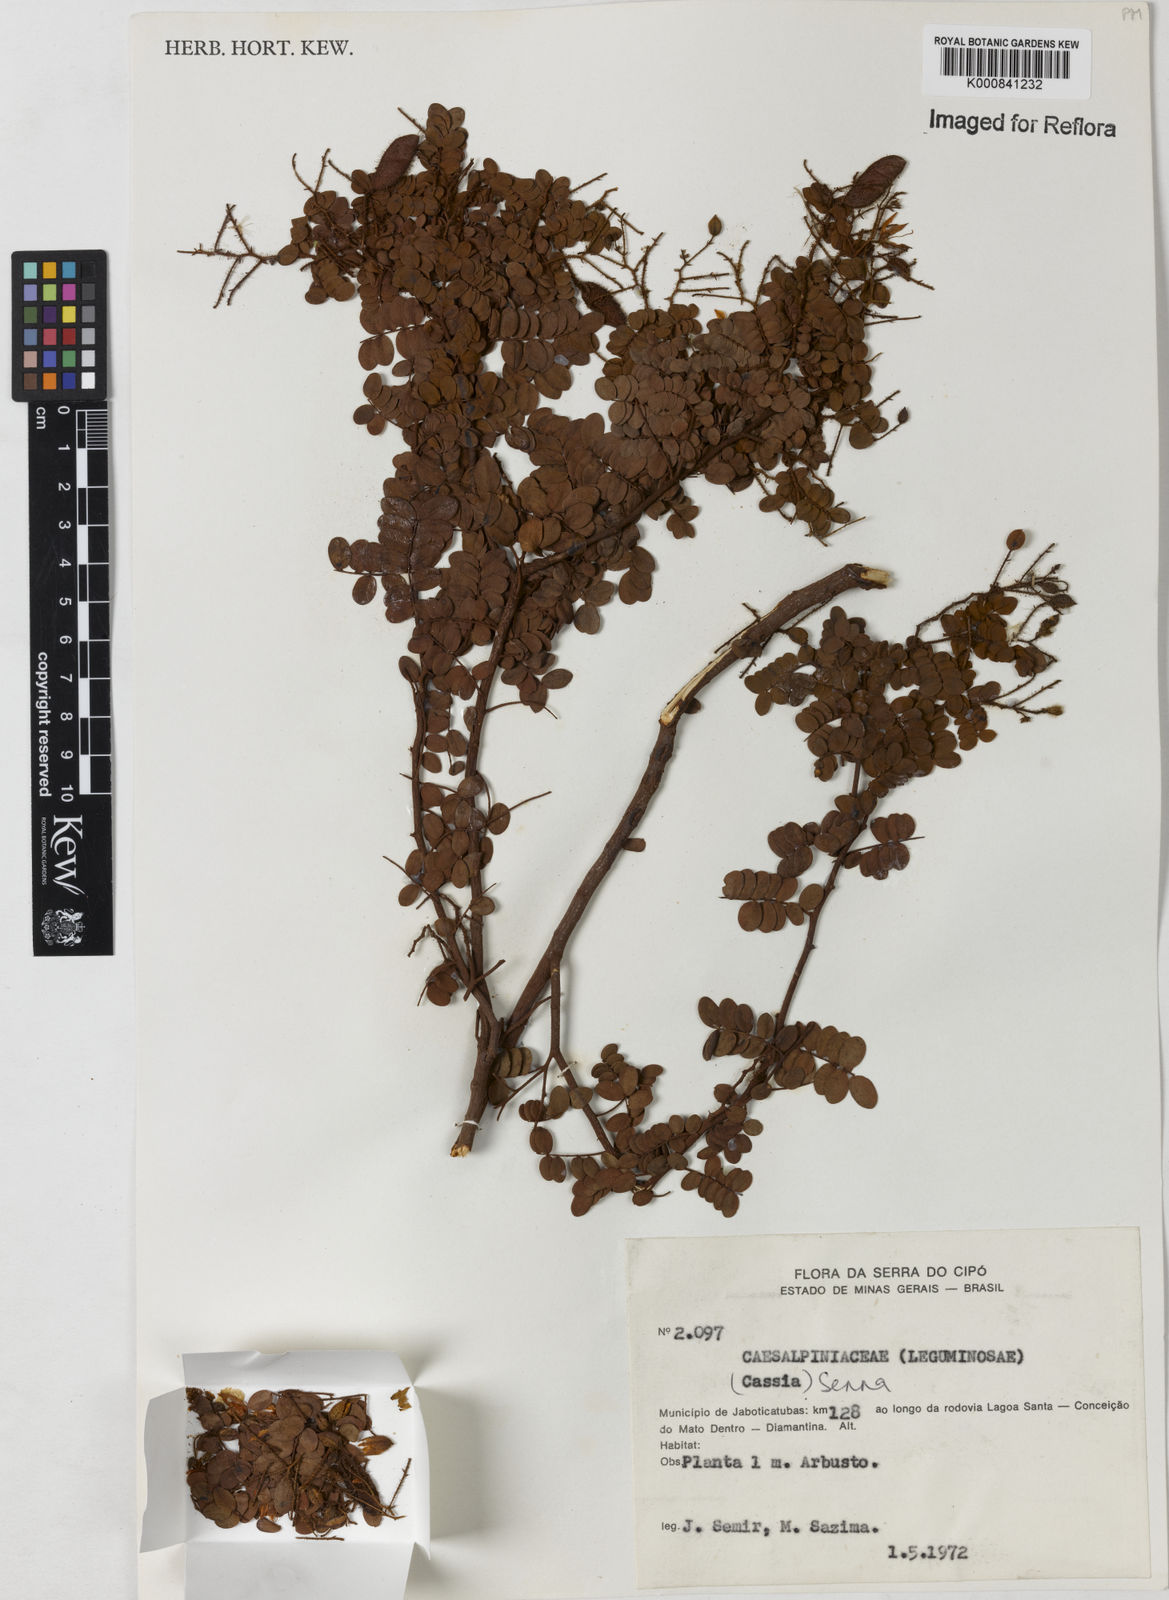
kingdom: Plantae
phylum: Tracheophyta
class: Magnoliopsida
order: Fabales
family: Fabaceae
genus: Senna
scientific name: Senna
